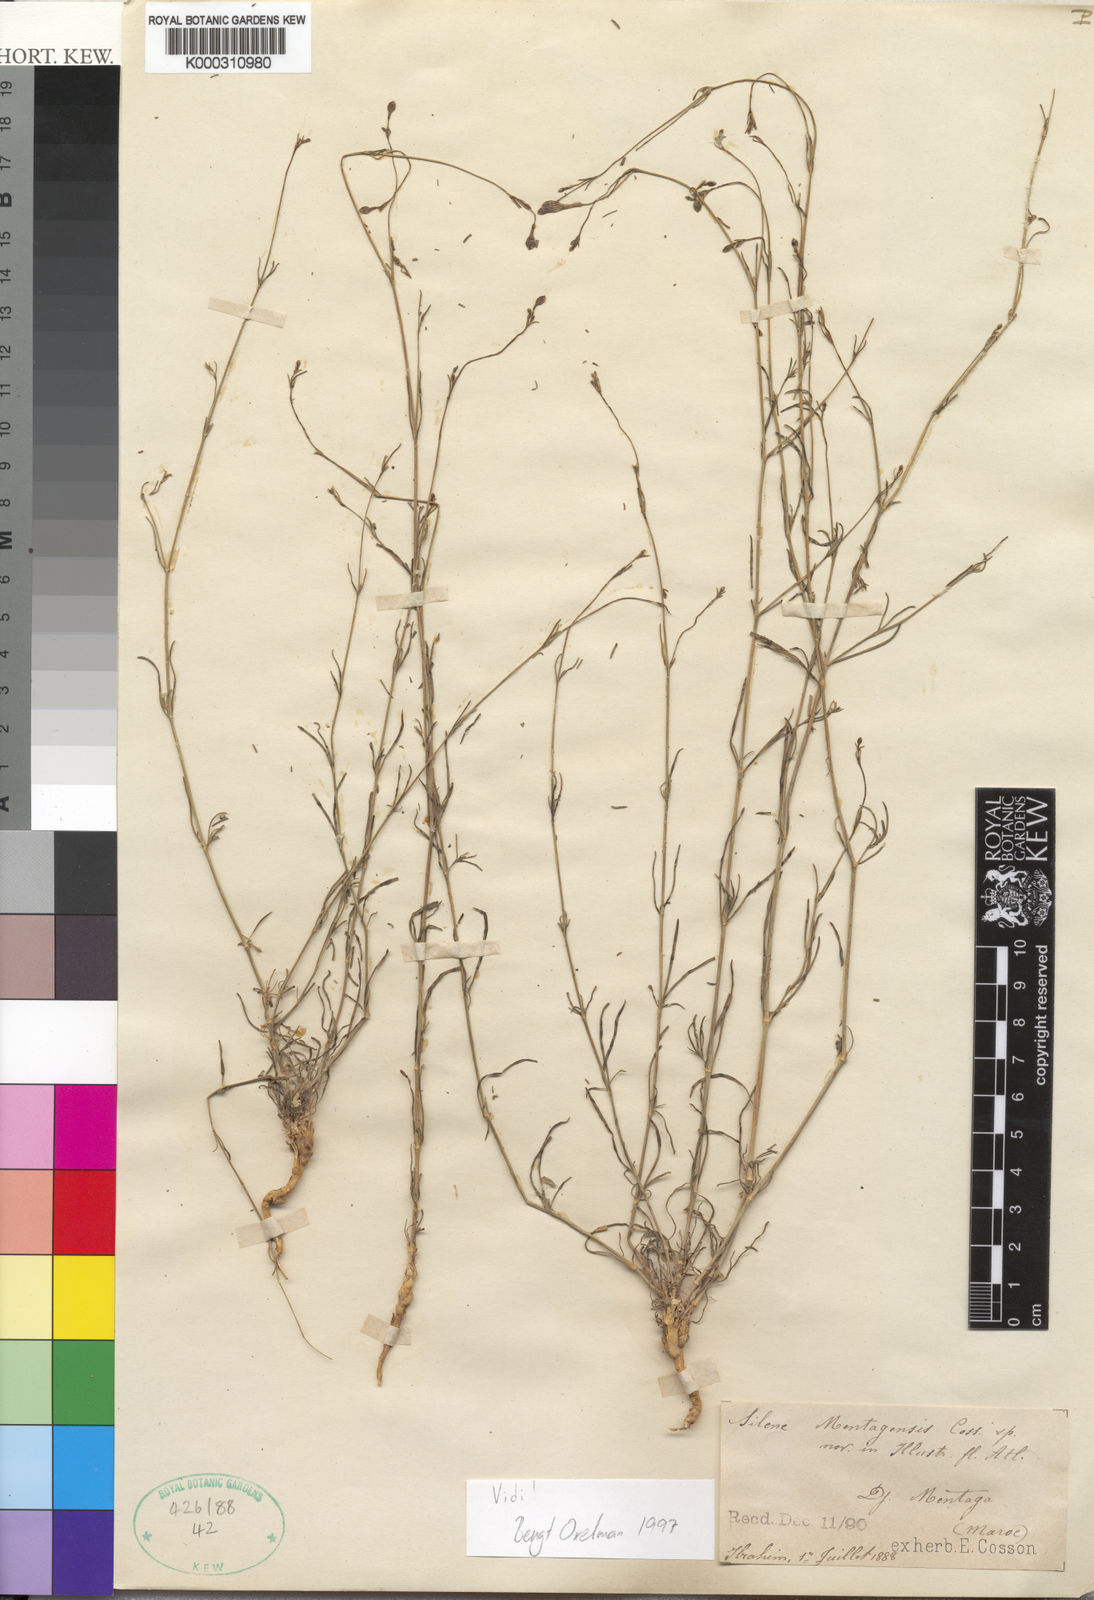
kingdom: Plantae
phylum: Tracheophyta
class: Magnoliopsida
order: Caryophyllales
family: Caryophyllaceae
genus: Silene
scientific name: Silene corrugata
